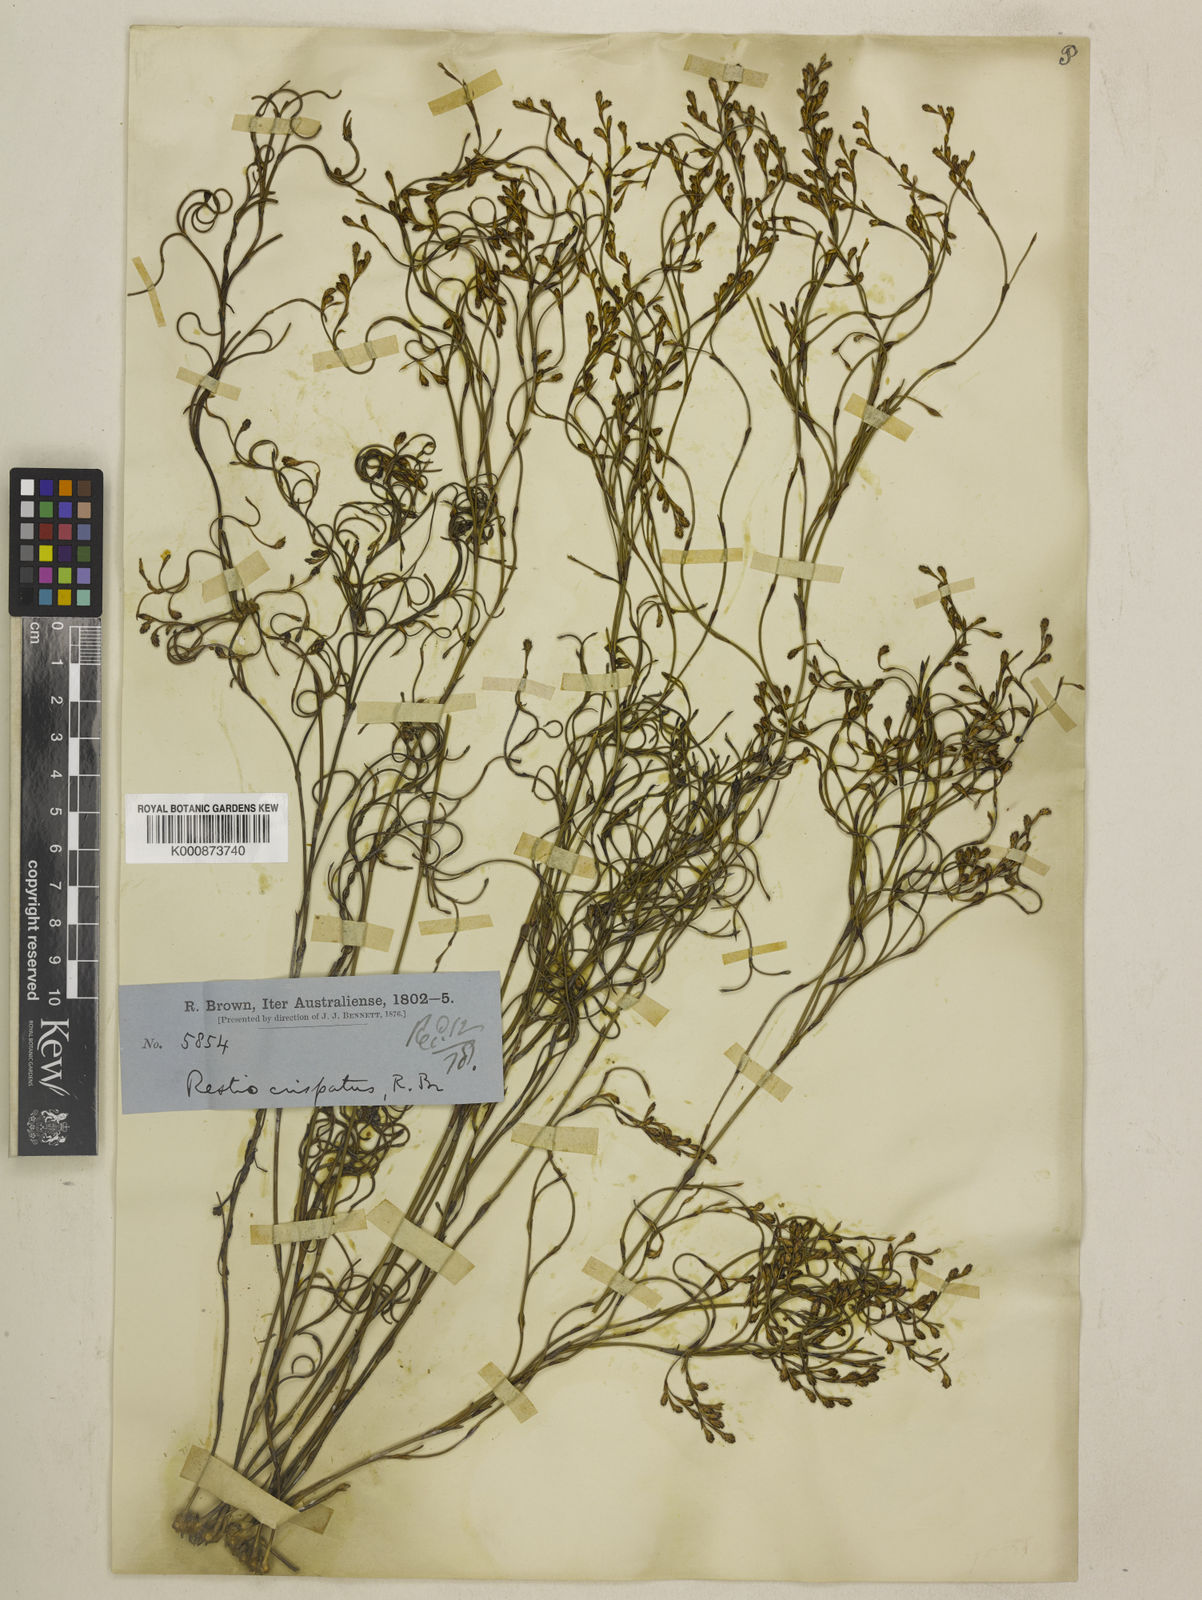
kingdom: Plantae
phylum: Tracheophyta
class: Liliopsida
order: Poales
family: Restionaceae
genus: Chordifex
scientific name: Chordifex crispatus
